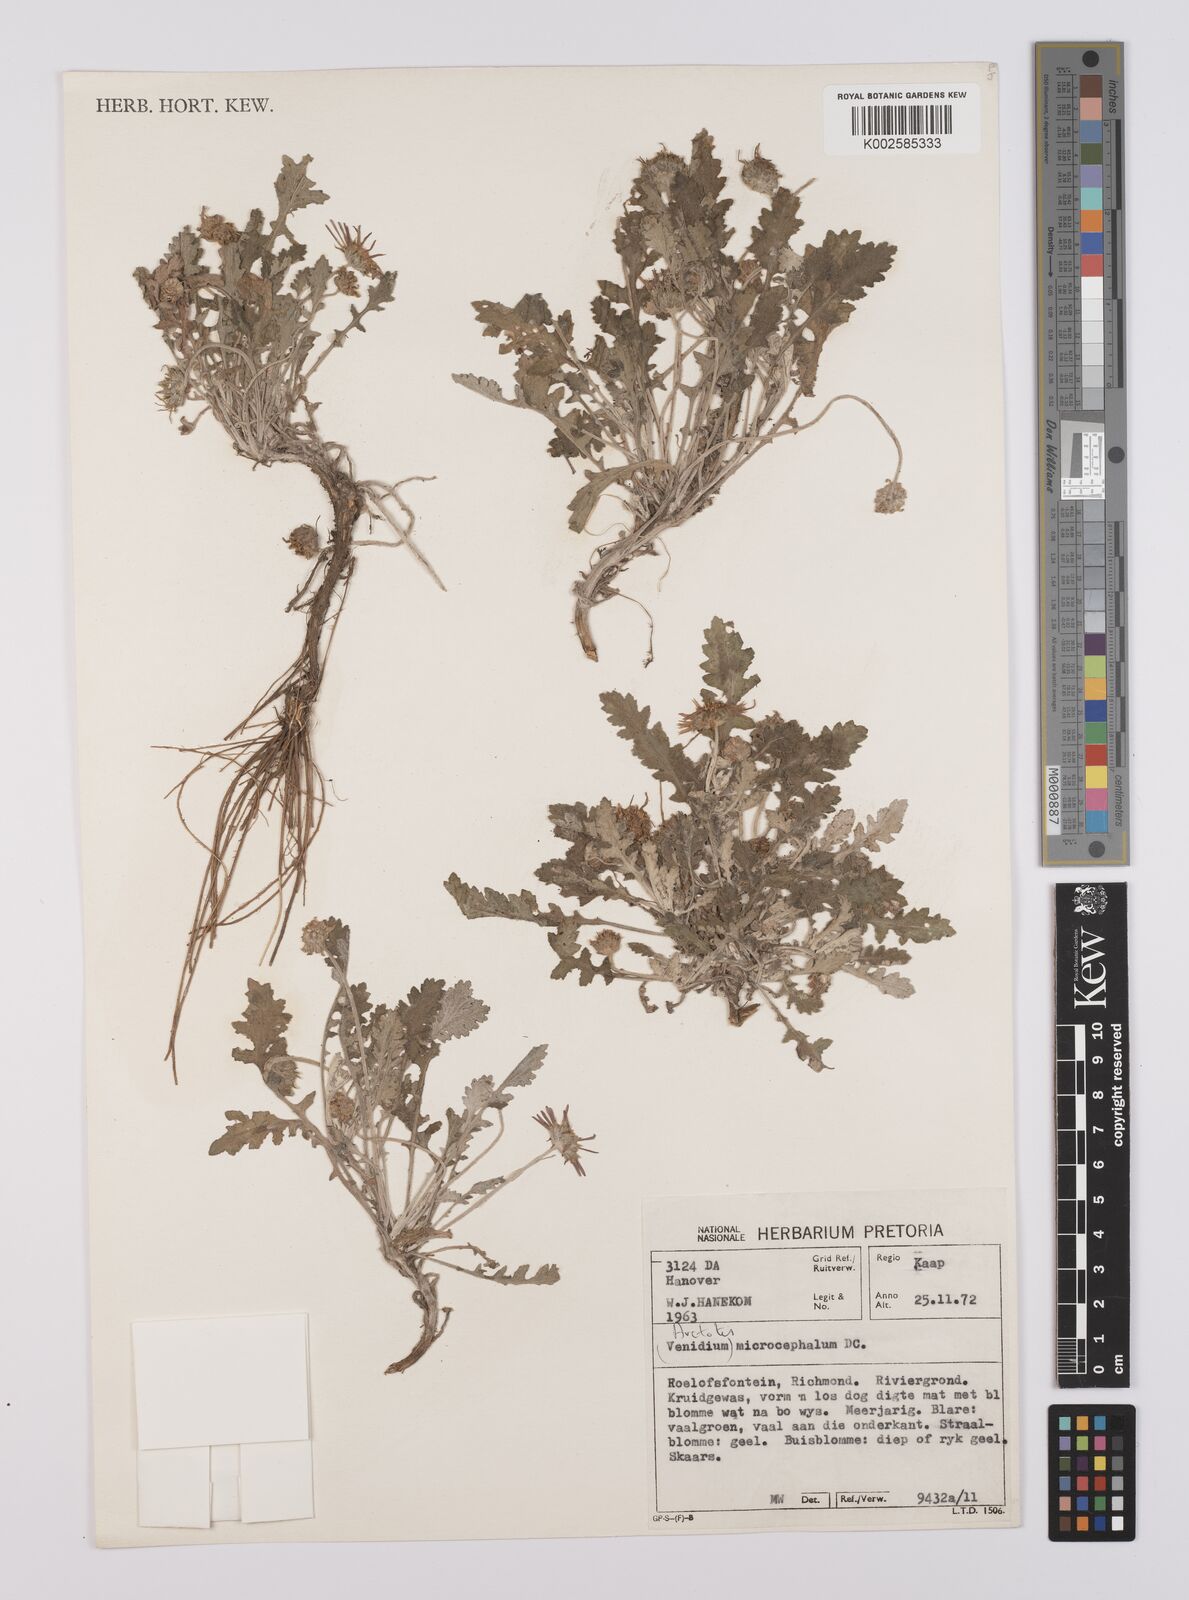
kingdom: Plantae
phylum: Tracheophyta
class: Magnoliopsida
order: Asterales
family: Asteraceae
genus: Arctotis
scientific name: Arctotis microcephala
